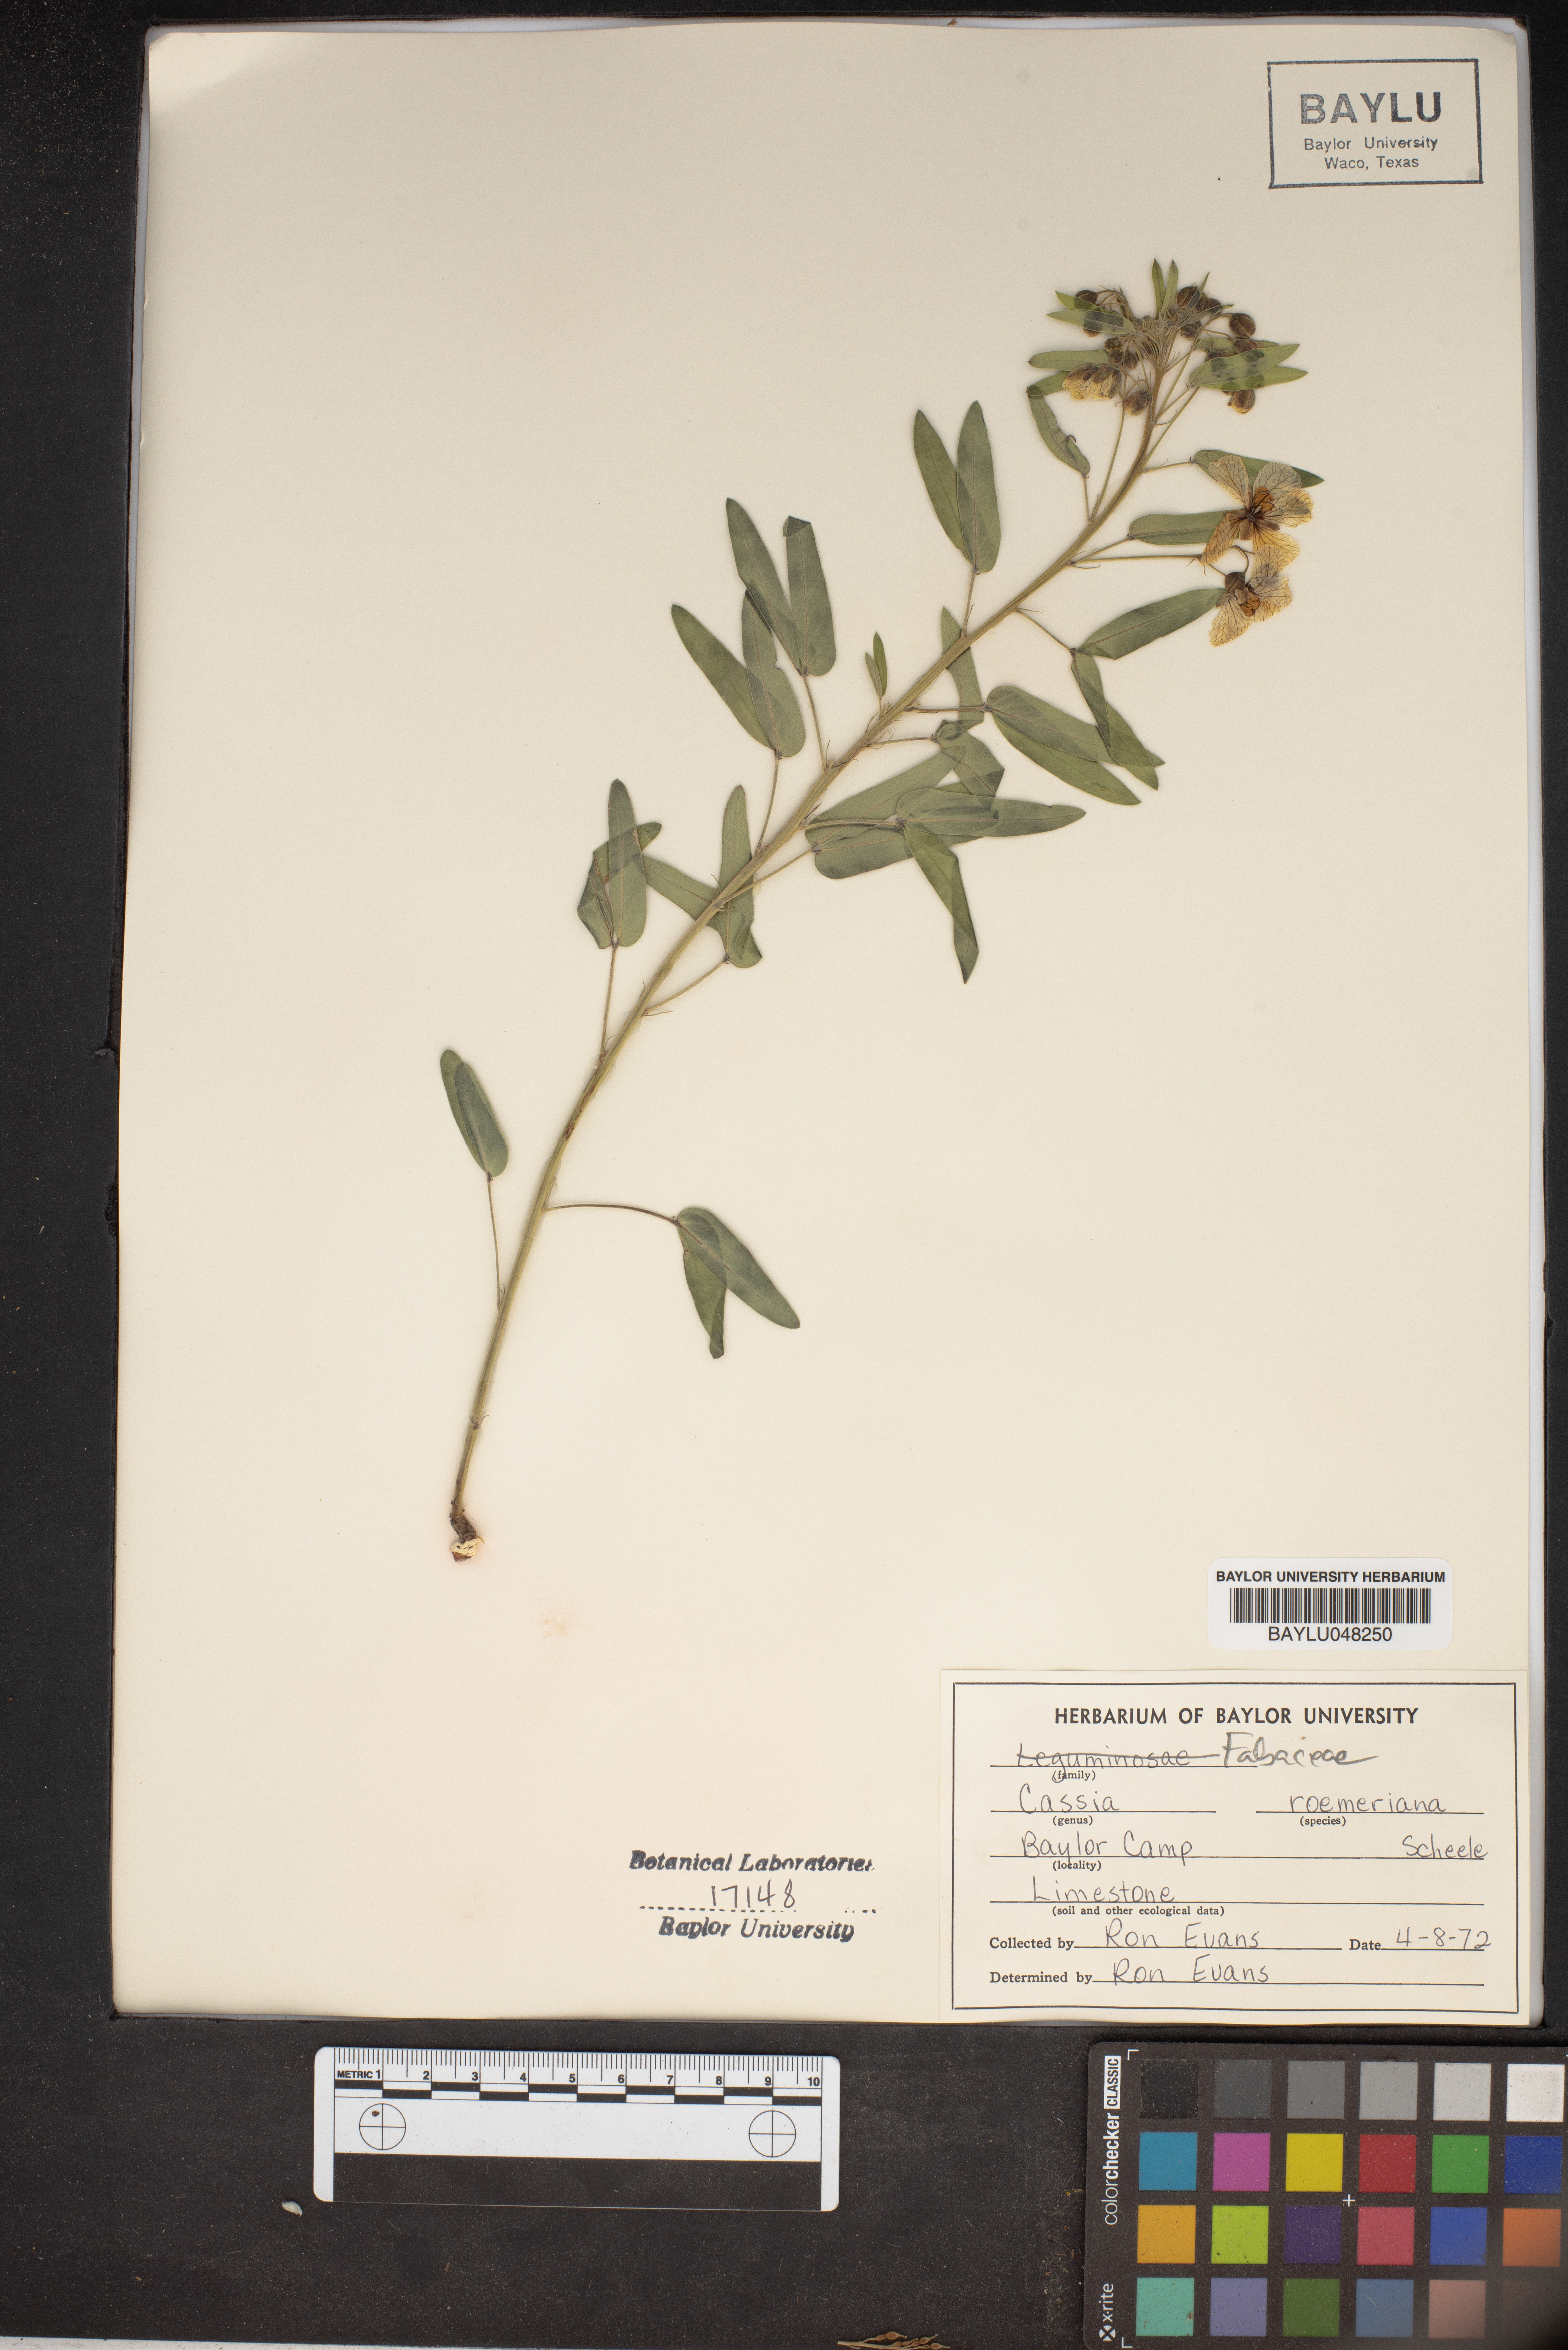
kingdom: Plantae
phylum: Tracheophyta
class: Magnoliopsida
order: Fabales
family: Fabaceae
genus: Senna
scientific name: Senna roemeriana
